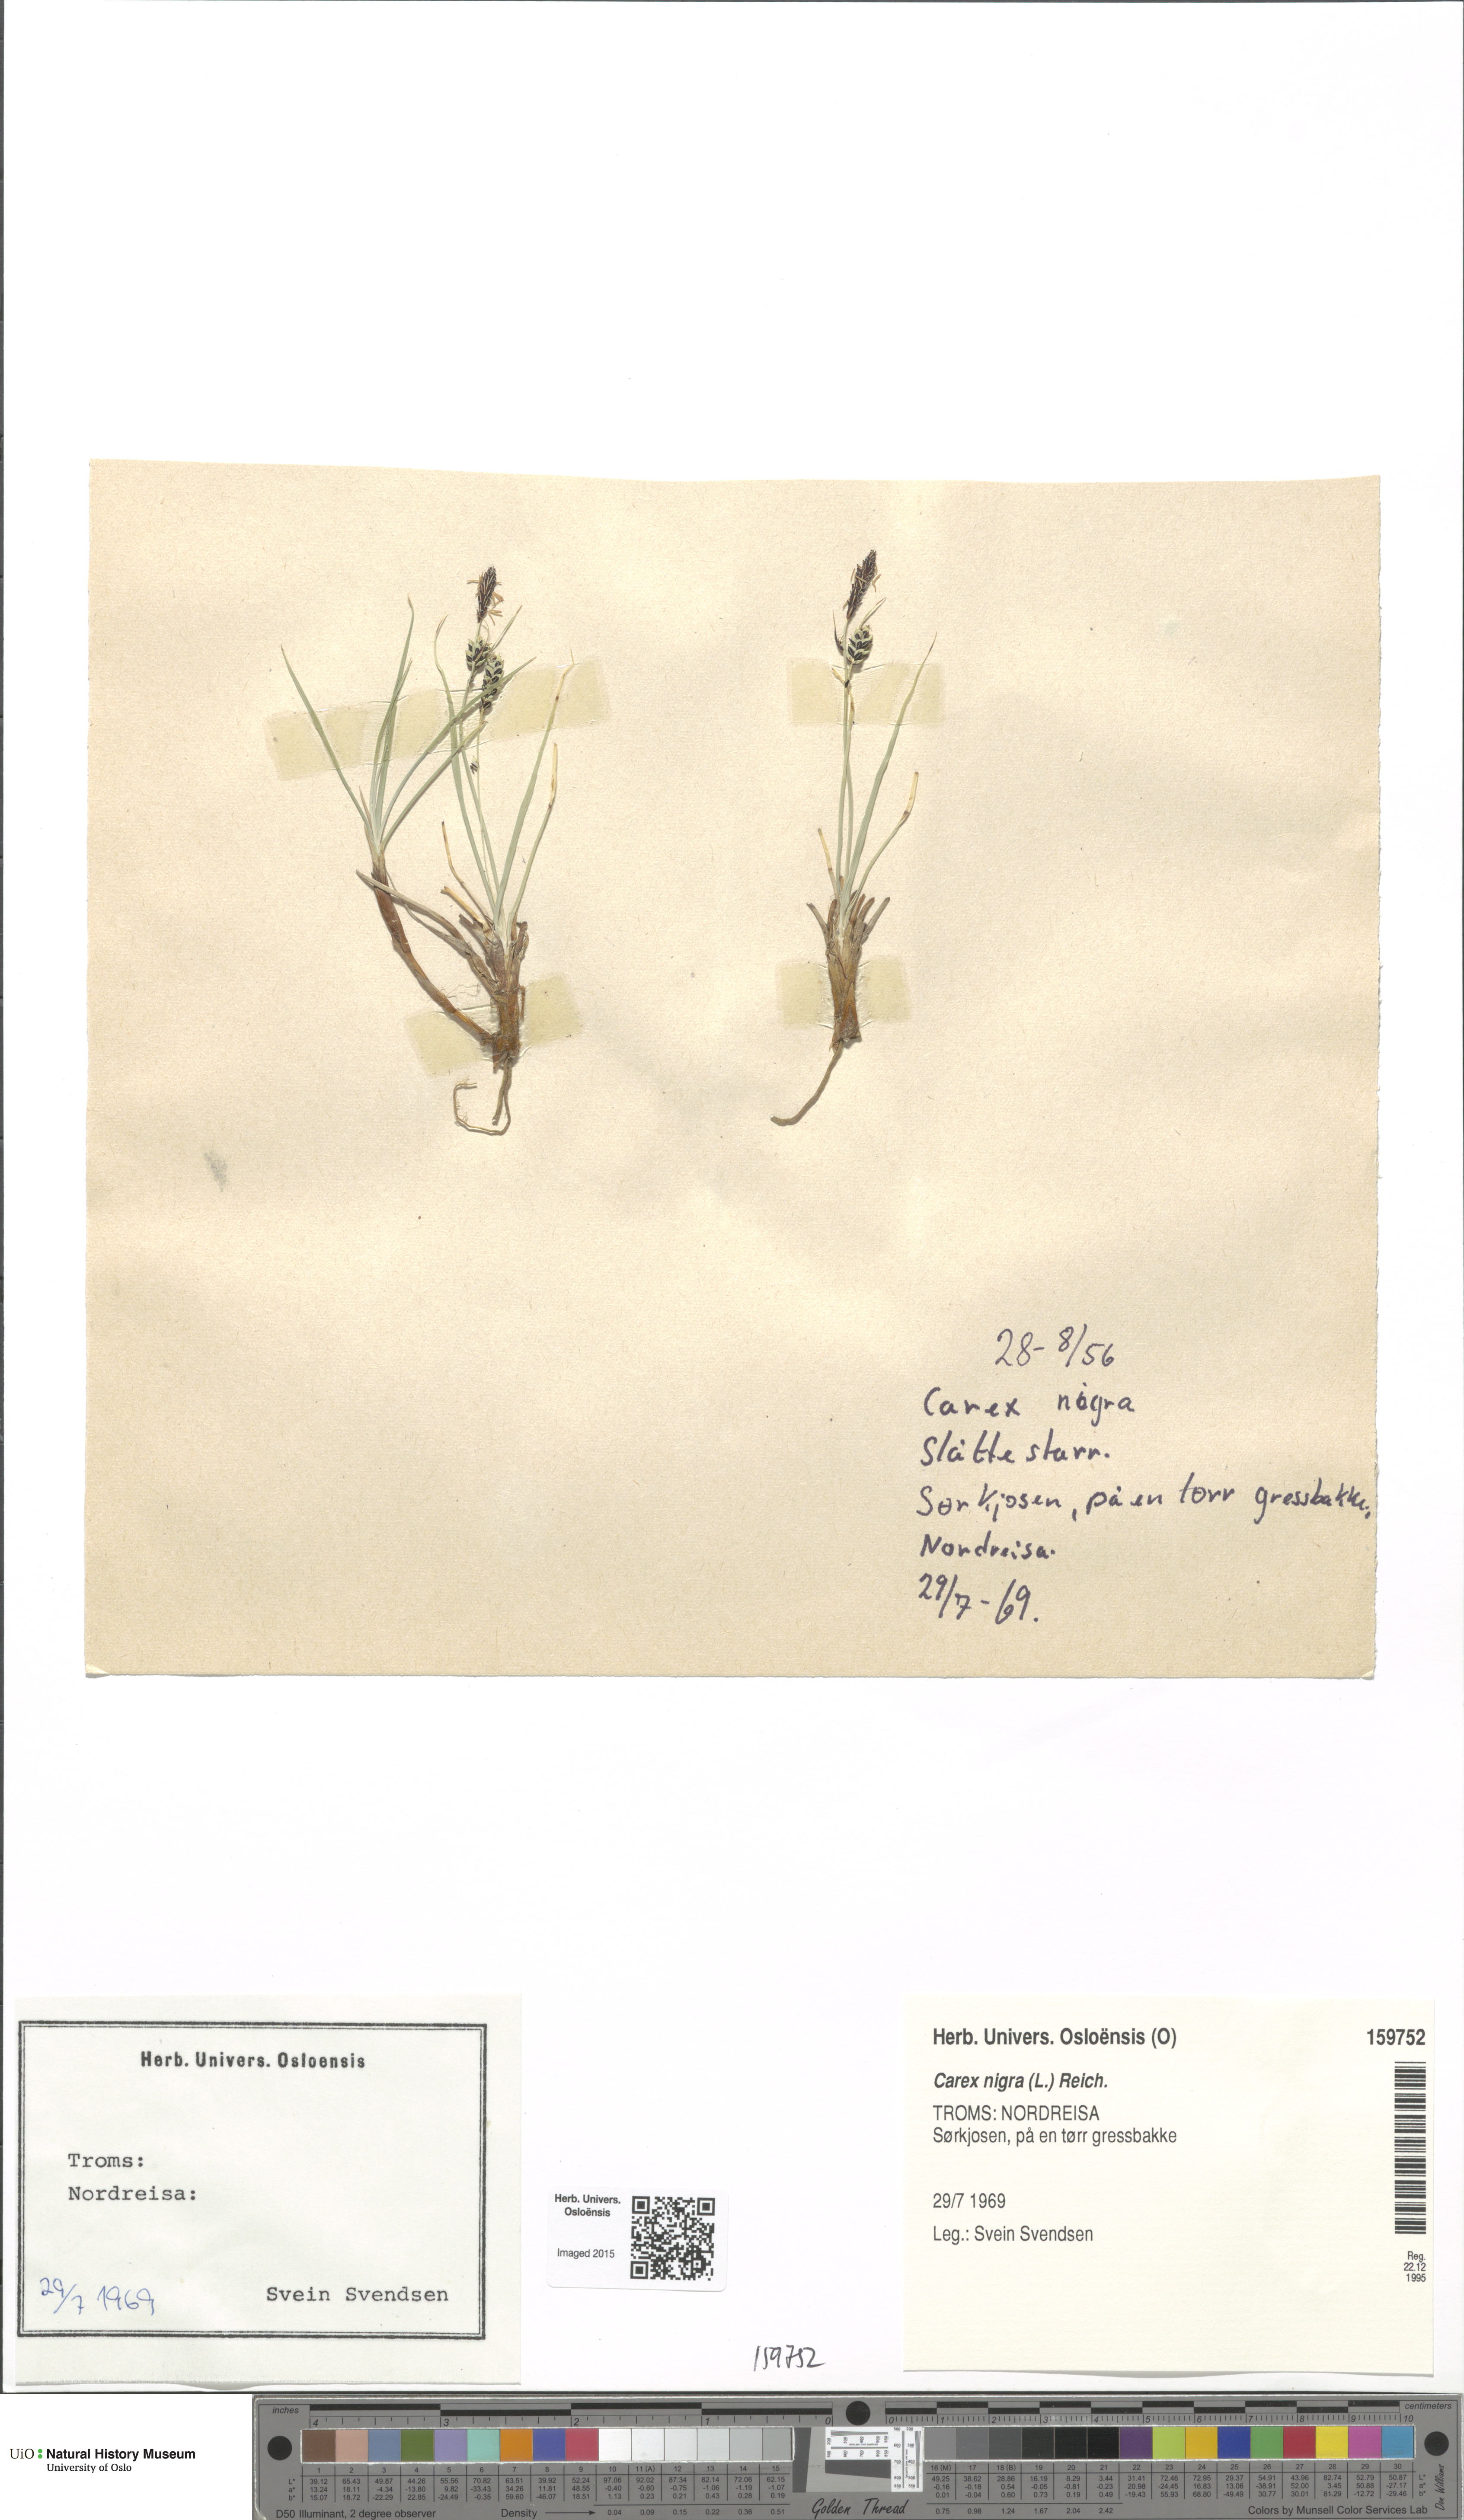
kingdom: Plantae
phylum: Tracheophyta
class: Liliopsida
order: Poales
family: Cyperaceae
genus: Carex
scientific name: Carex nigra
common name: Common sedge
